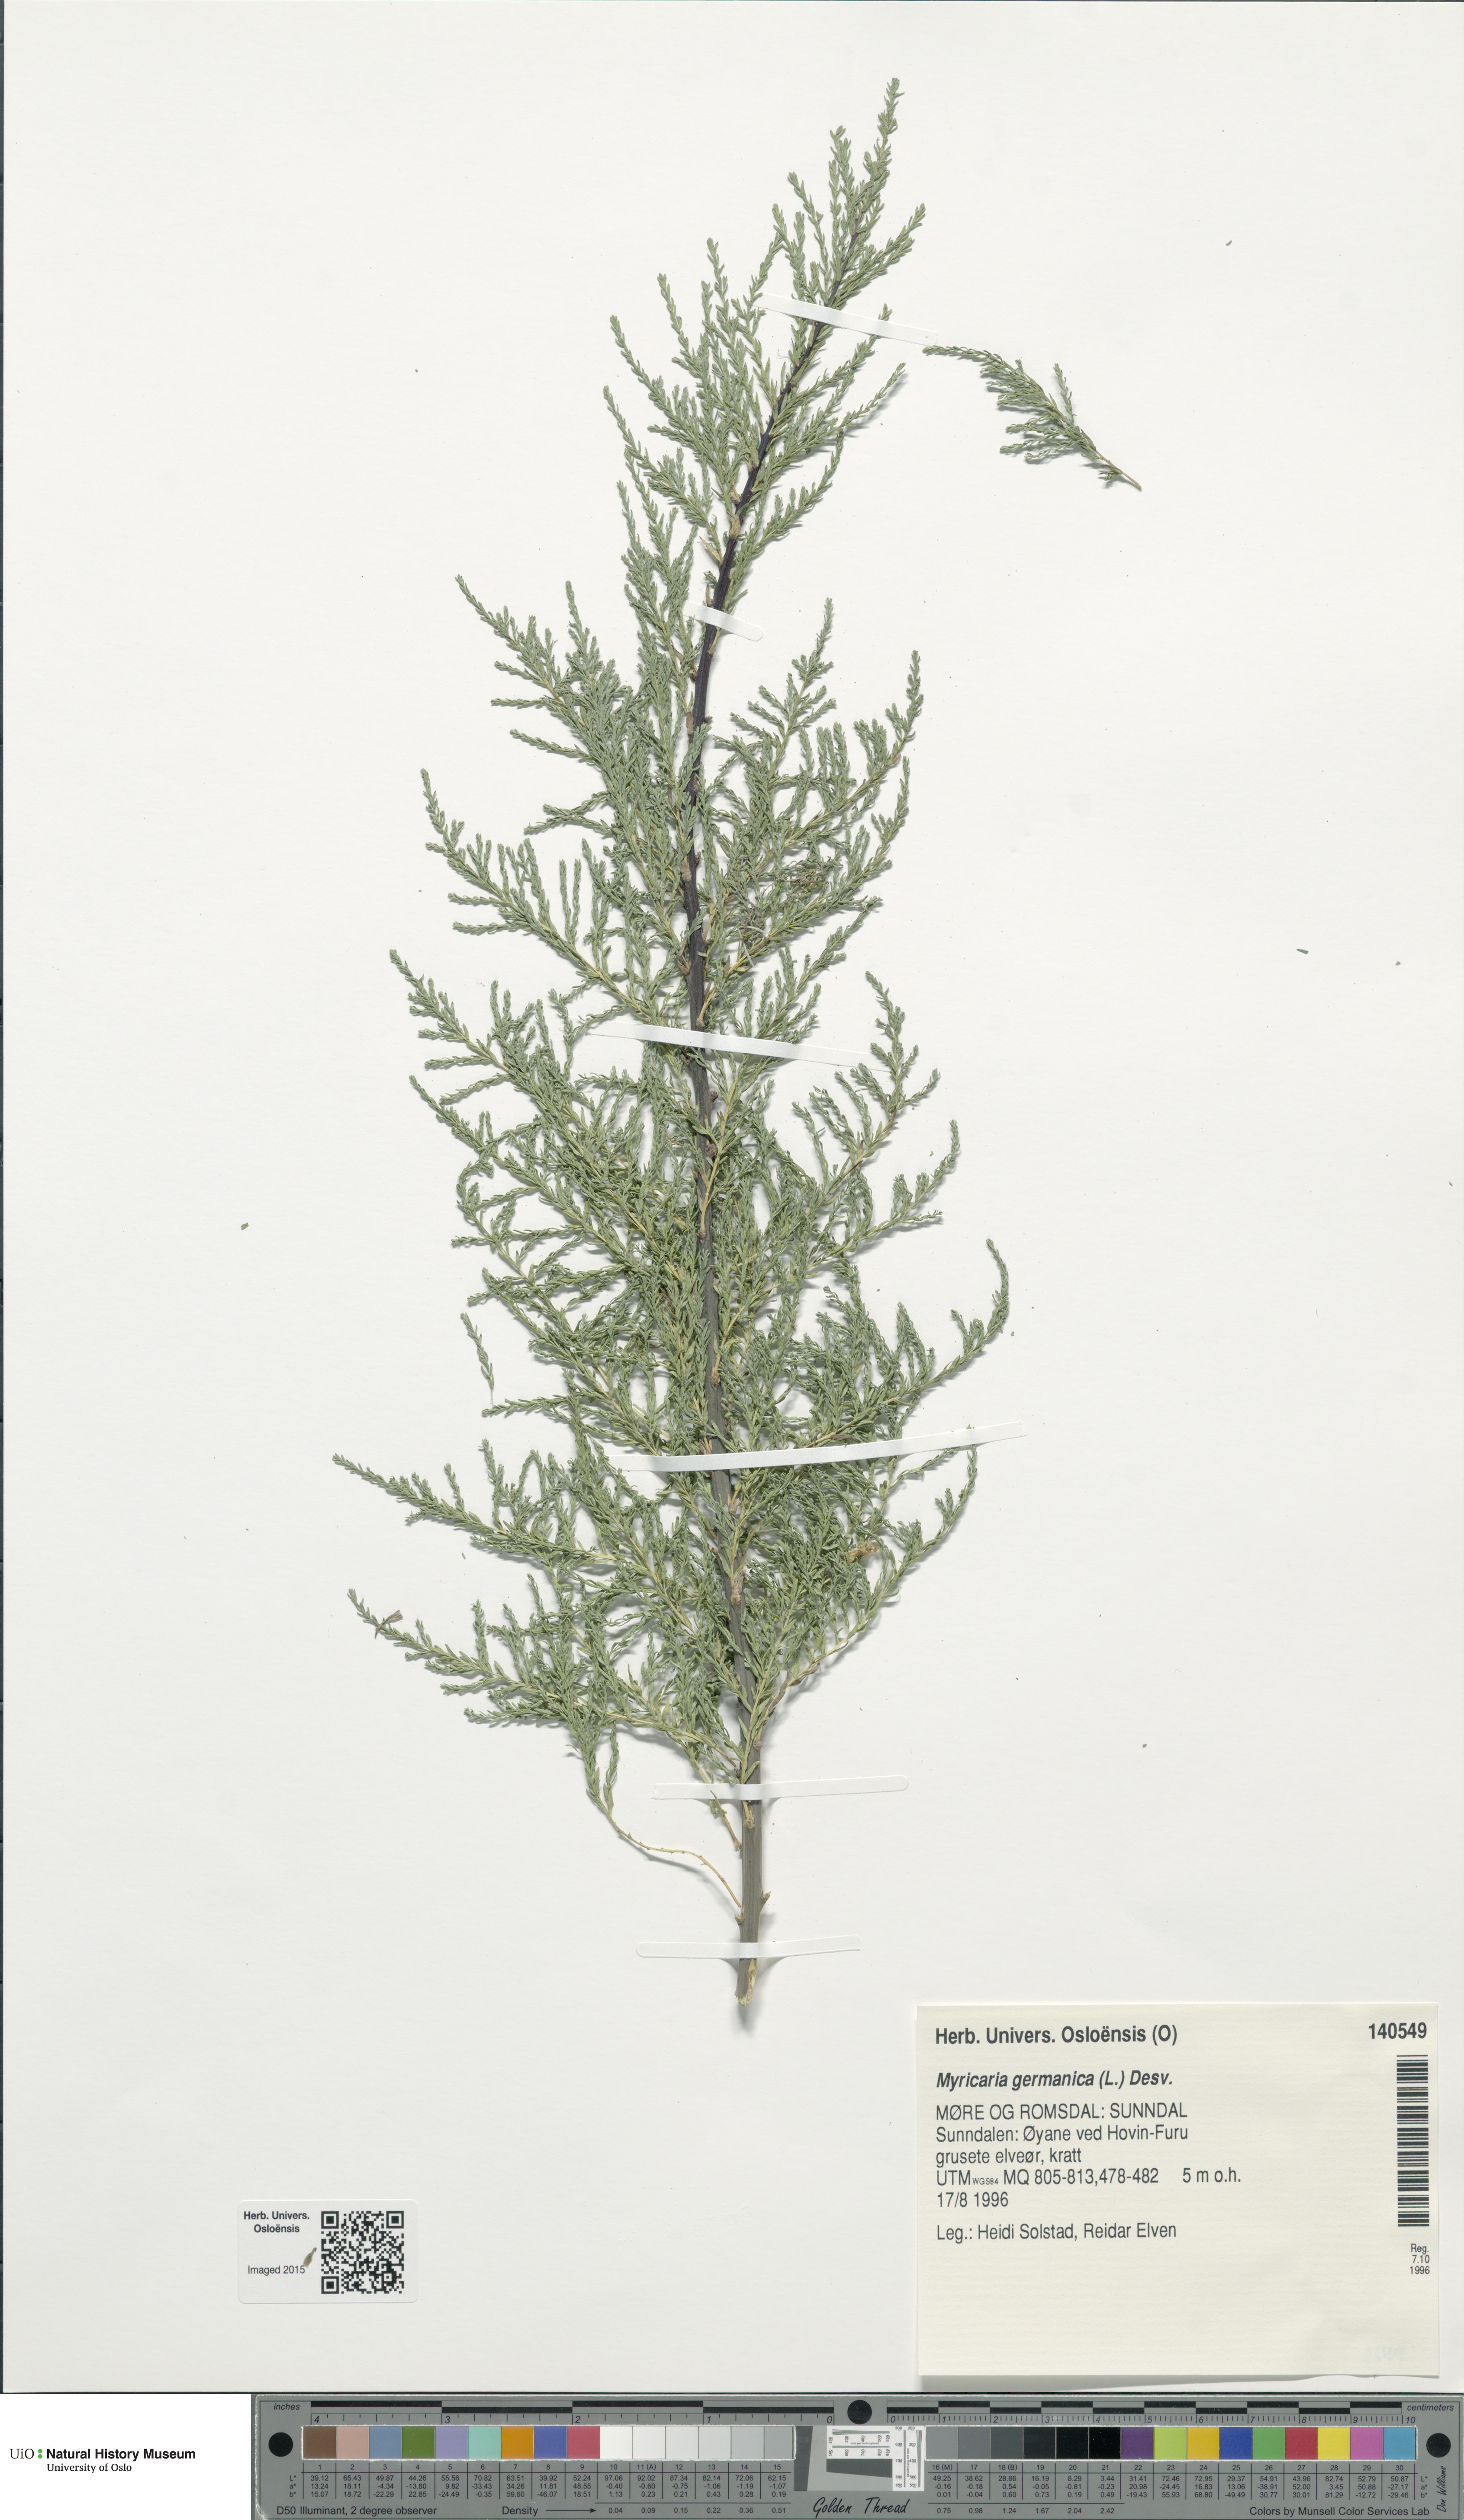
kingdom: Plantae
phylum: Tracheophyta
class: Magnoliopsida
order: Caryophyllales
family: Tamaricaceae
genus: Myricaria
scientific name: Myricaria germanica
